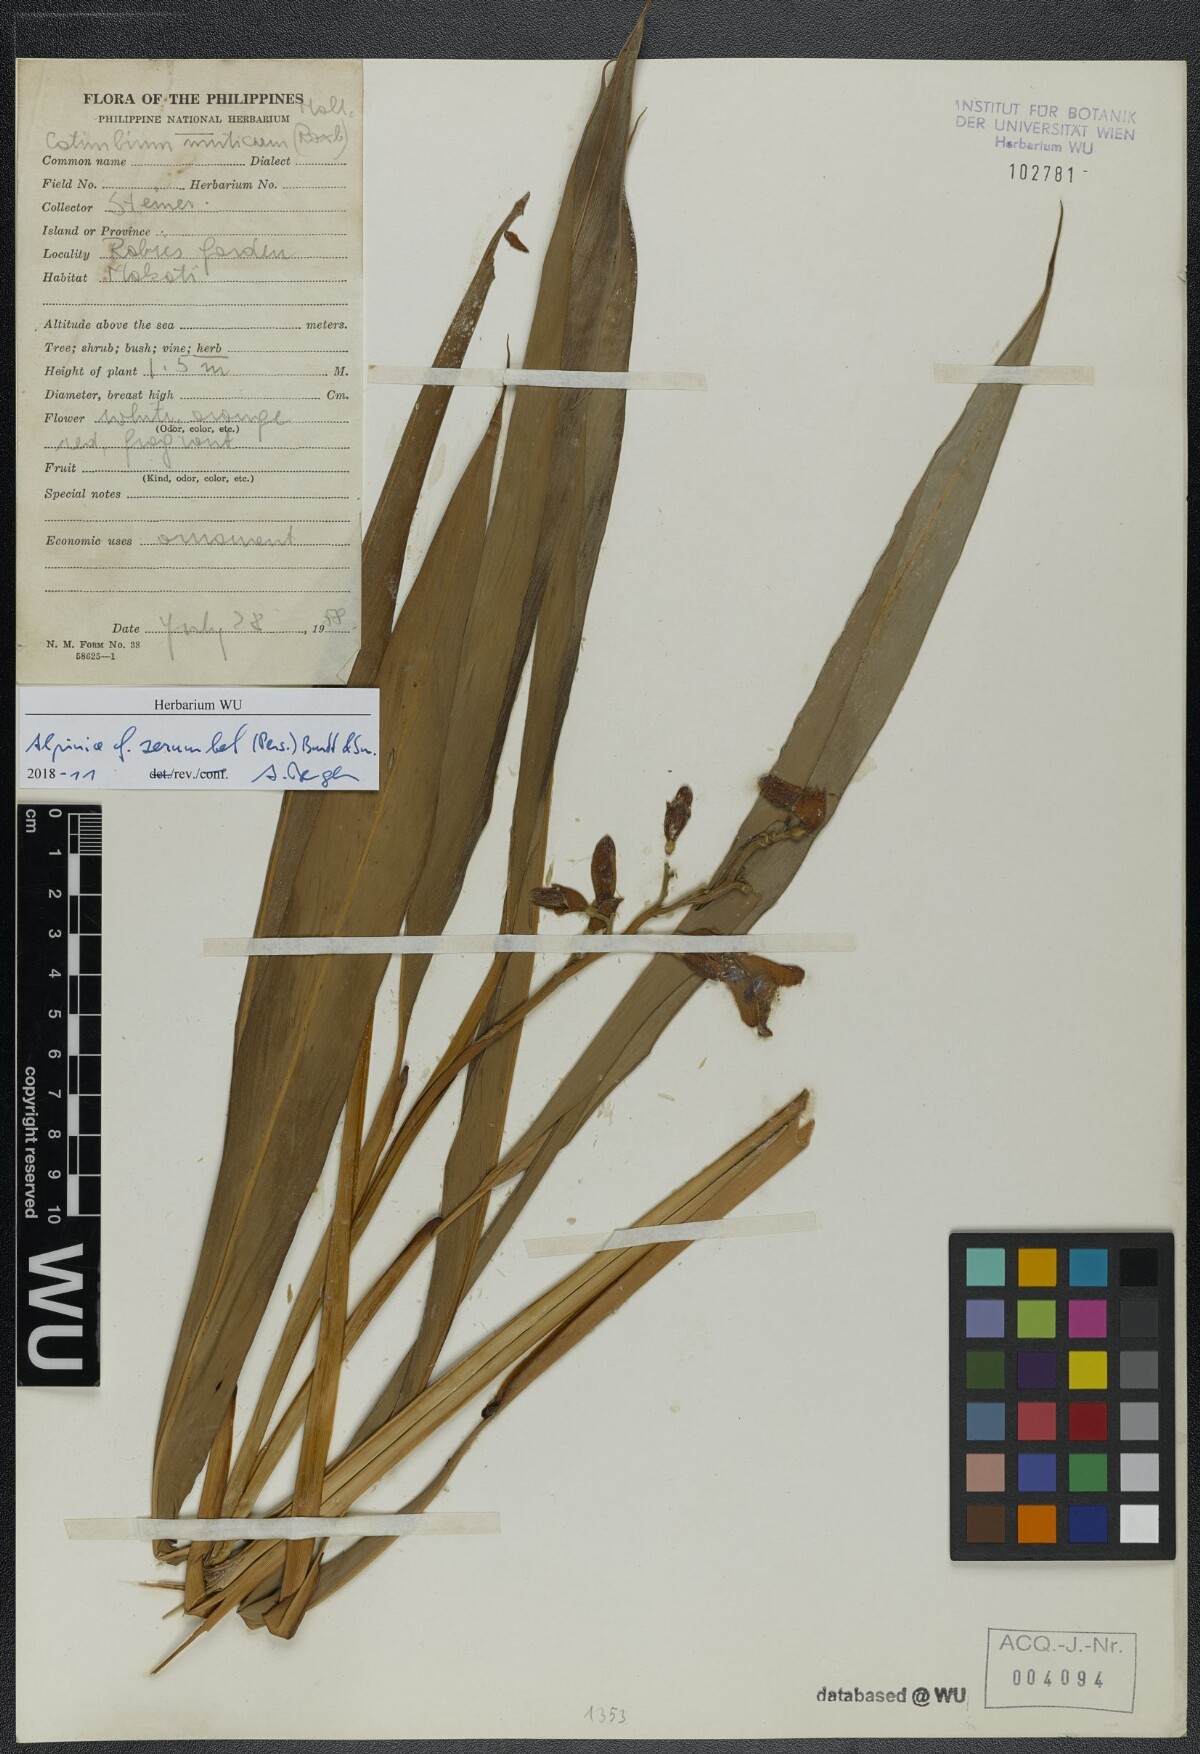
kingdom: Plantae
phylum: Tracheophyta
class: Liliopsida
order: Zingiberales
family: Zingiberaceae
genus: Alpinia
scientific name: Alpinia zerumbet
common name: Shellplant
